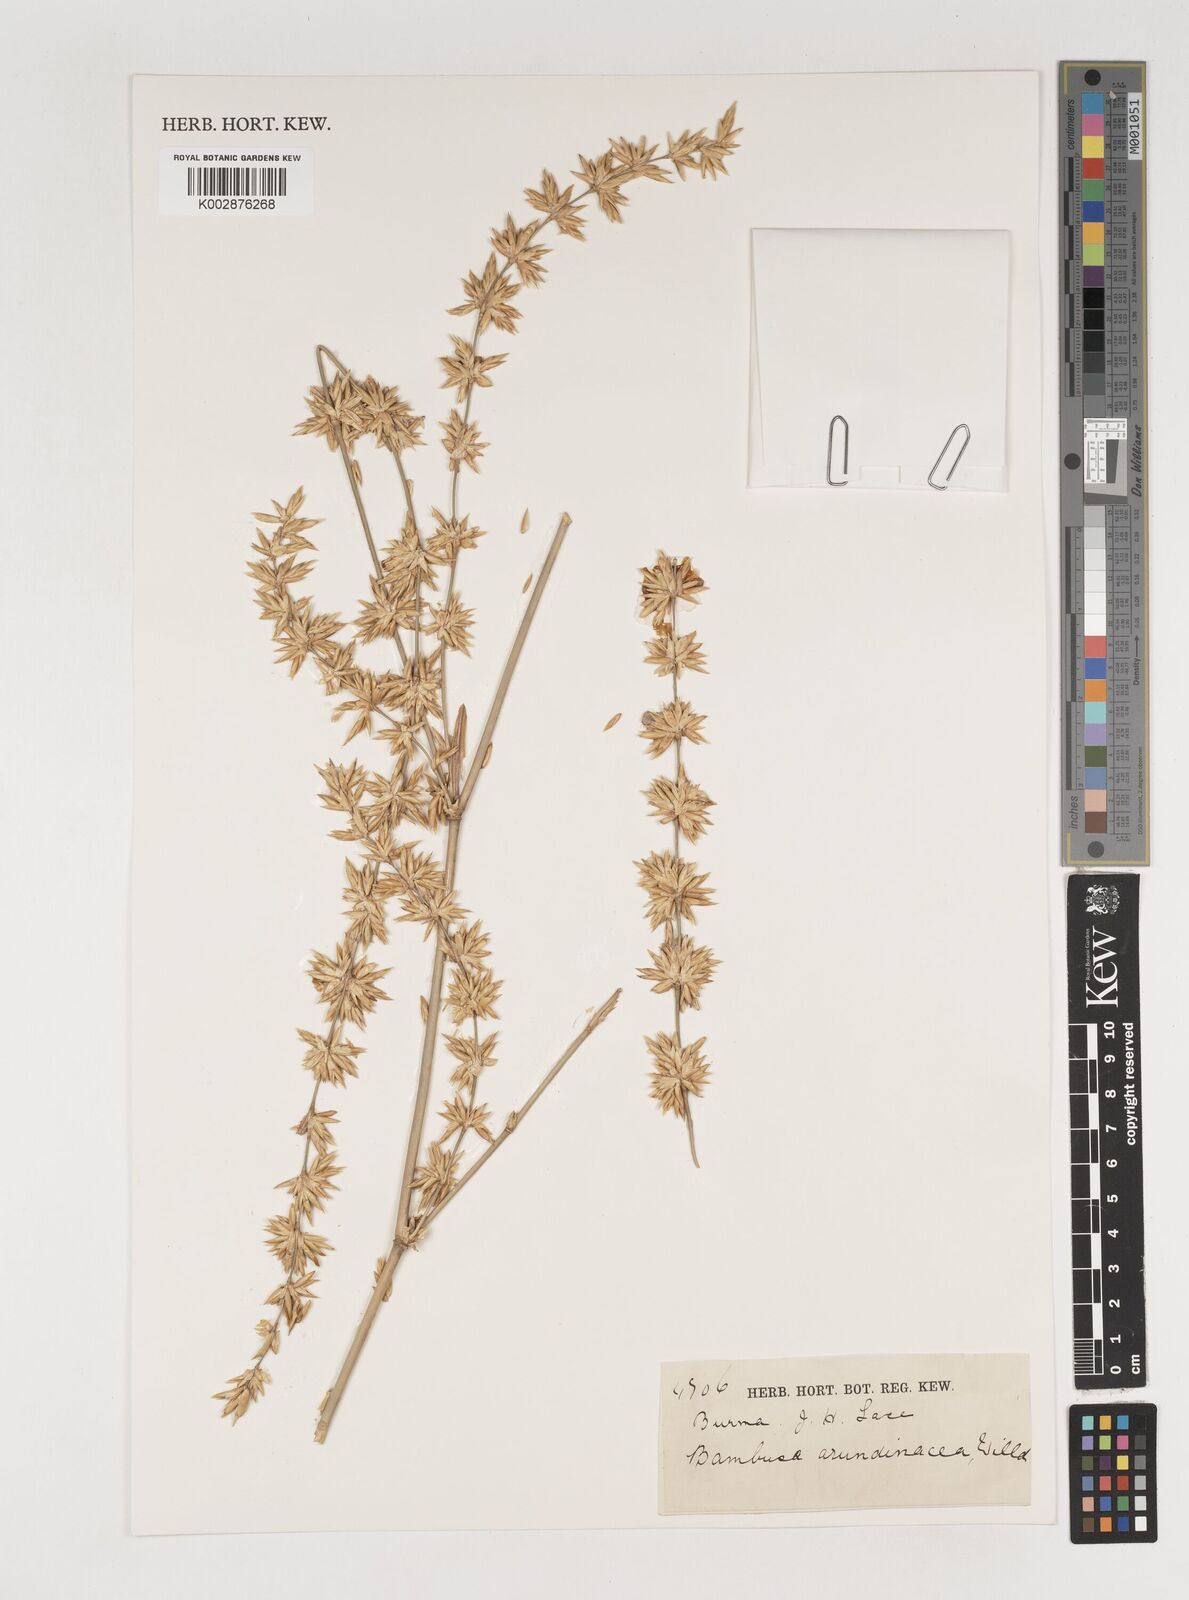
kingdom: Plantae
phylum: Tracheophyta
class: Liliopsida
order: Poales
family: Poaceae
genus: Bambusa
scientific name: Bambusa bambos
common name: Indian thorny bamboo
